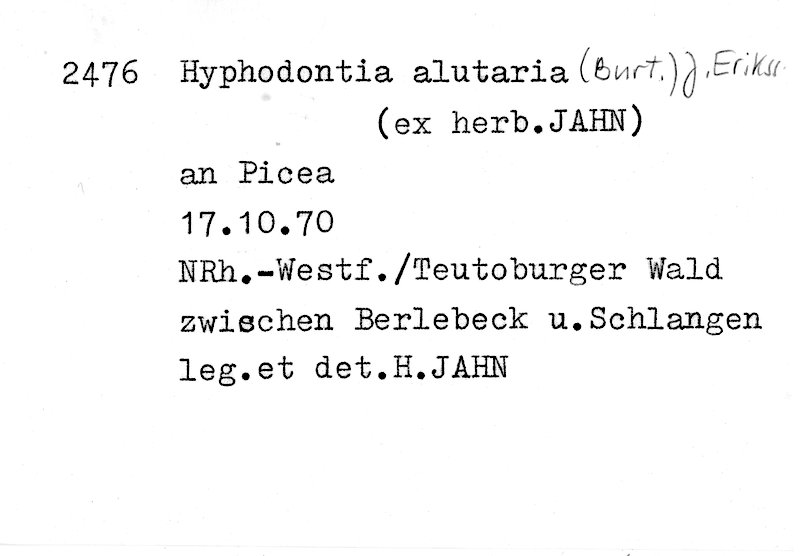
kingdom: Fungi
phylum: Basidiomycota
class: Agaricomycetes
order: Hymenochaetales
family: Hyphodontiaceae
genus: Hyphodontia
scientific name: Hyphodontia alutaria
